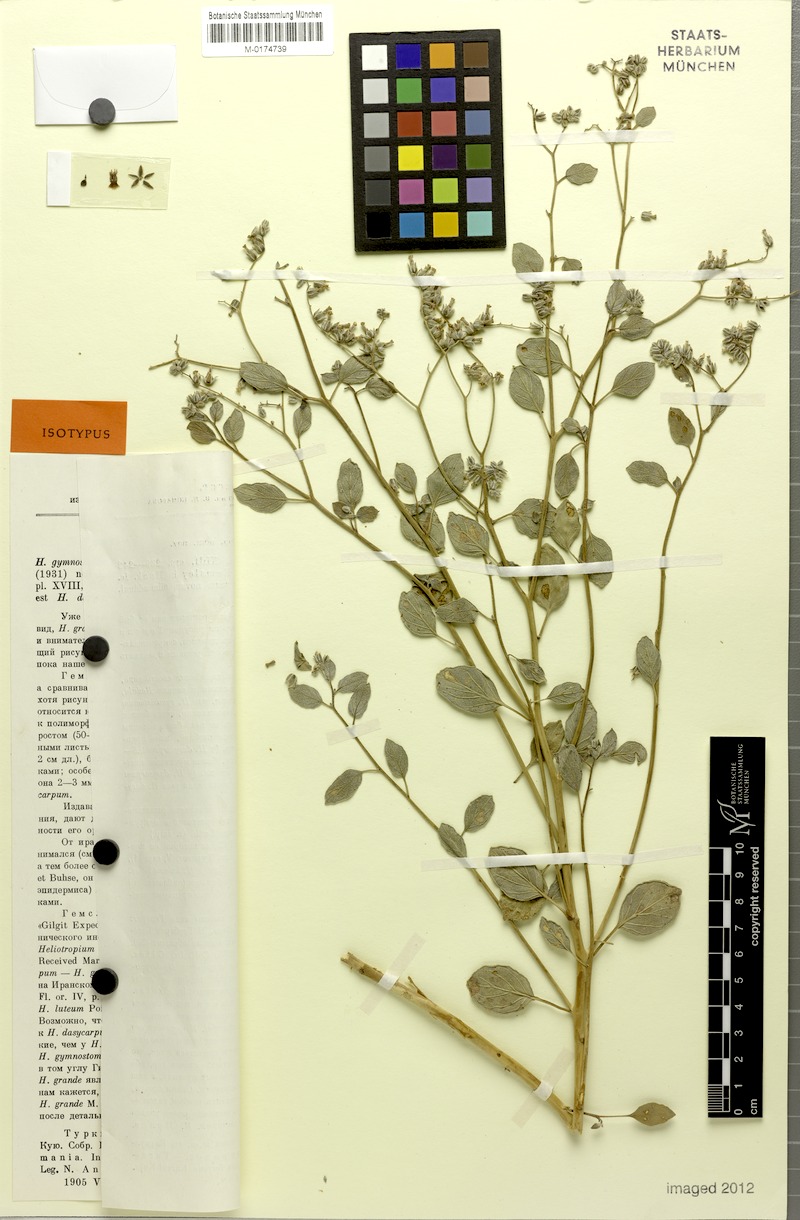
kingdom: Plantae
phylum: Tracheophyta
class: Magnoliopsida
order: Boraginales
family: Heliotropiaceae
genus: Heliotropium
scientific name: Heliotropium dasycarpum
